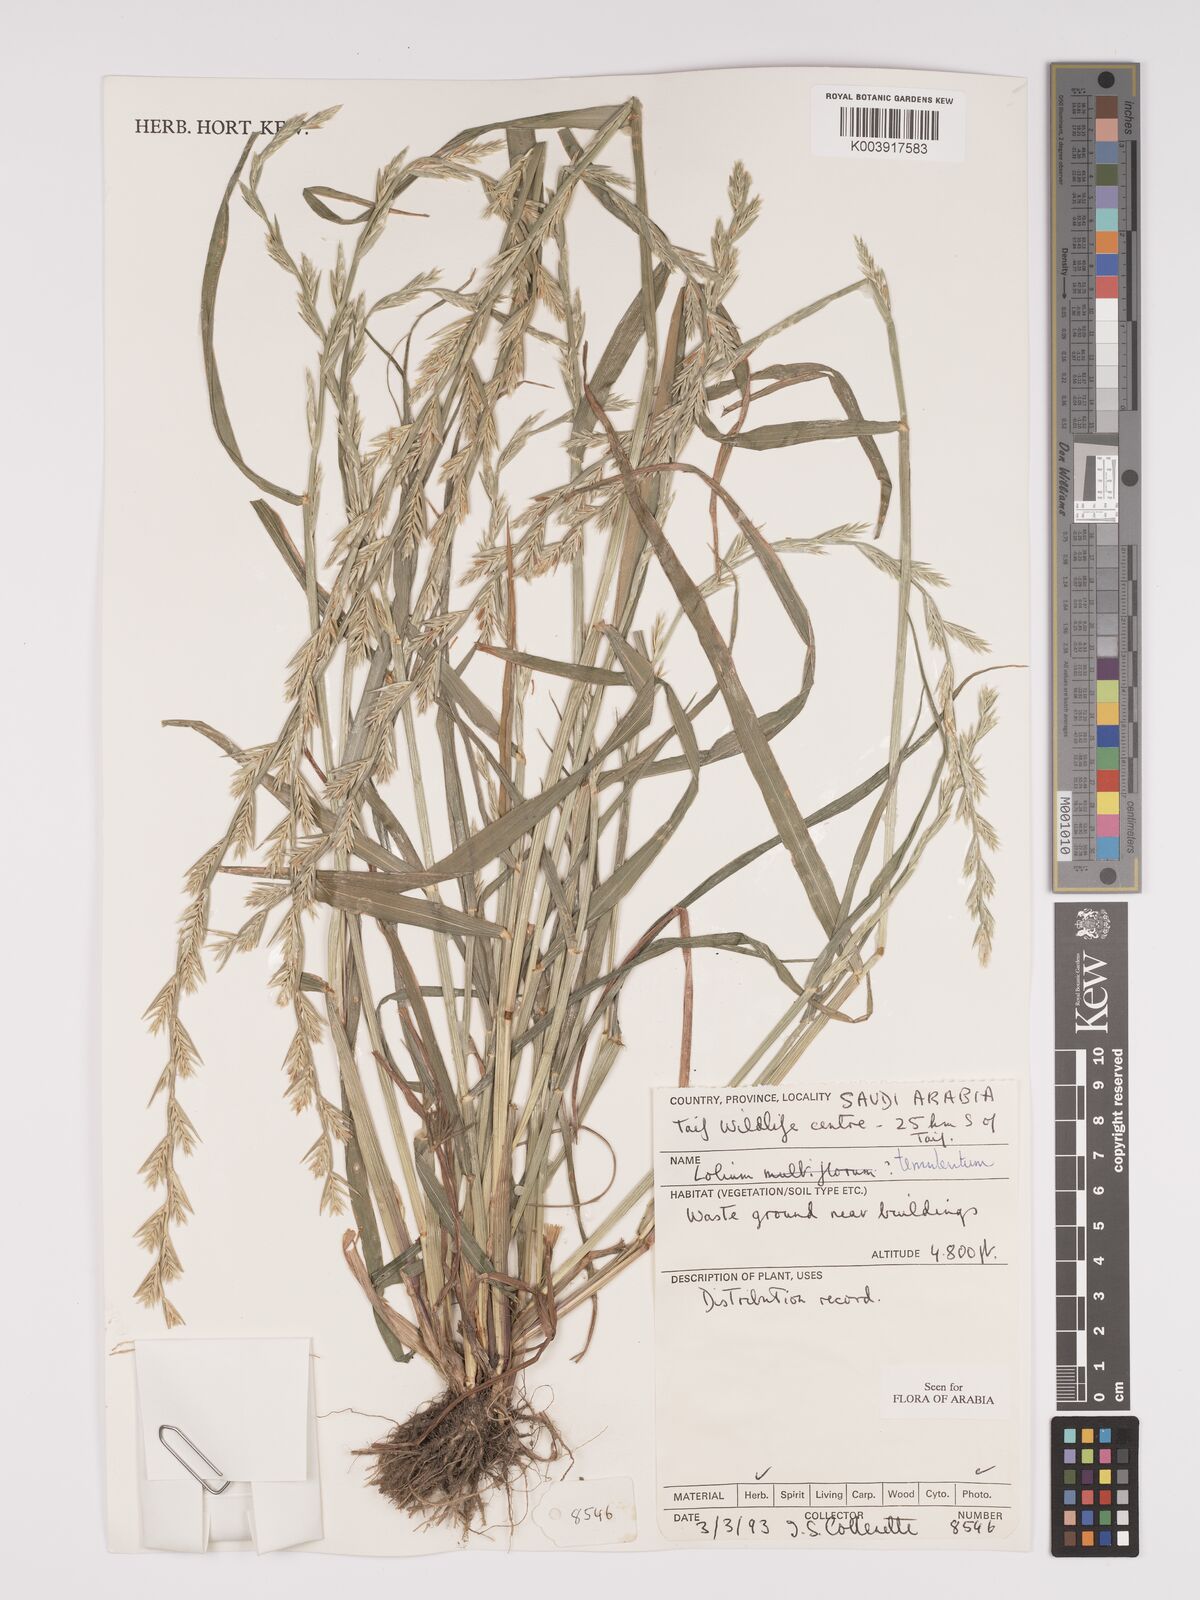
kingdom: Plantae
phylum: Tracheophyta
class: Liliopsida
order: Poales
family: Poaceae
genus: Lolium
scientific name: Lolium temulentum
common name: Darnel
